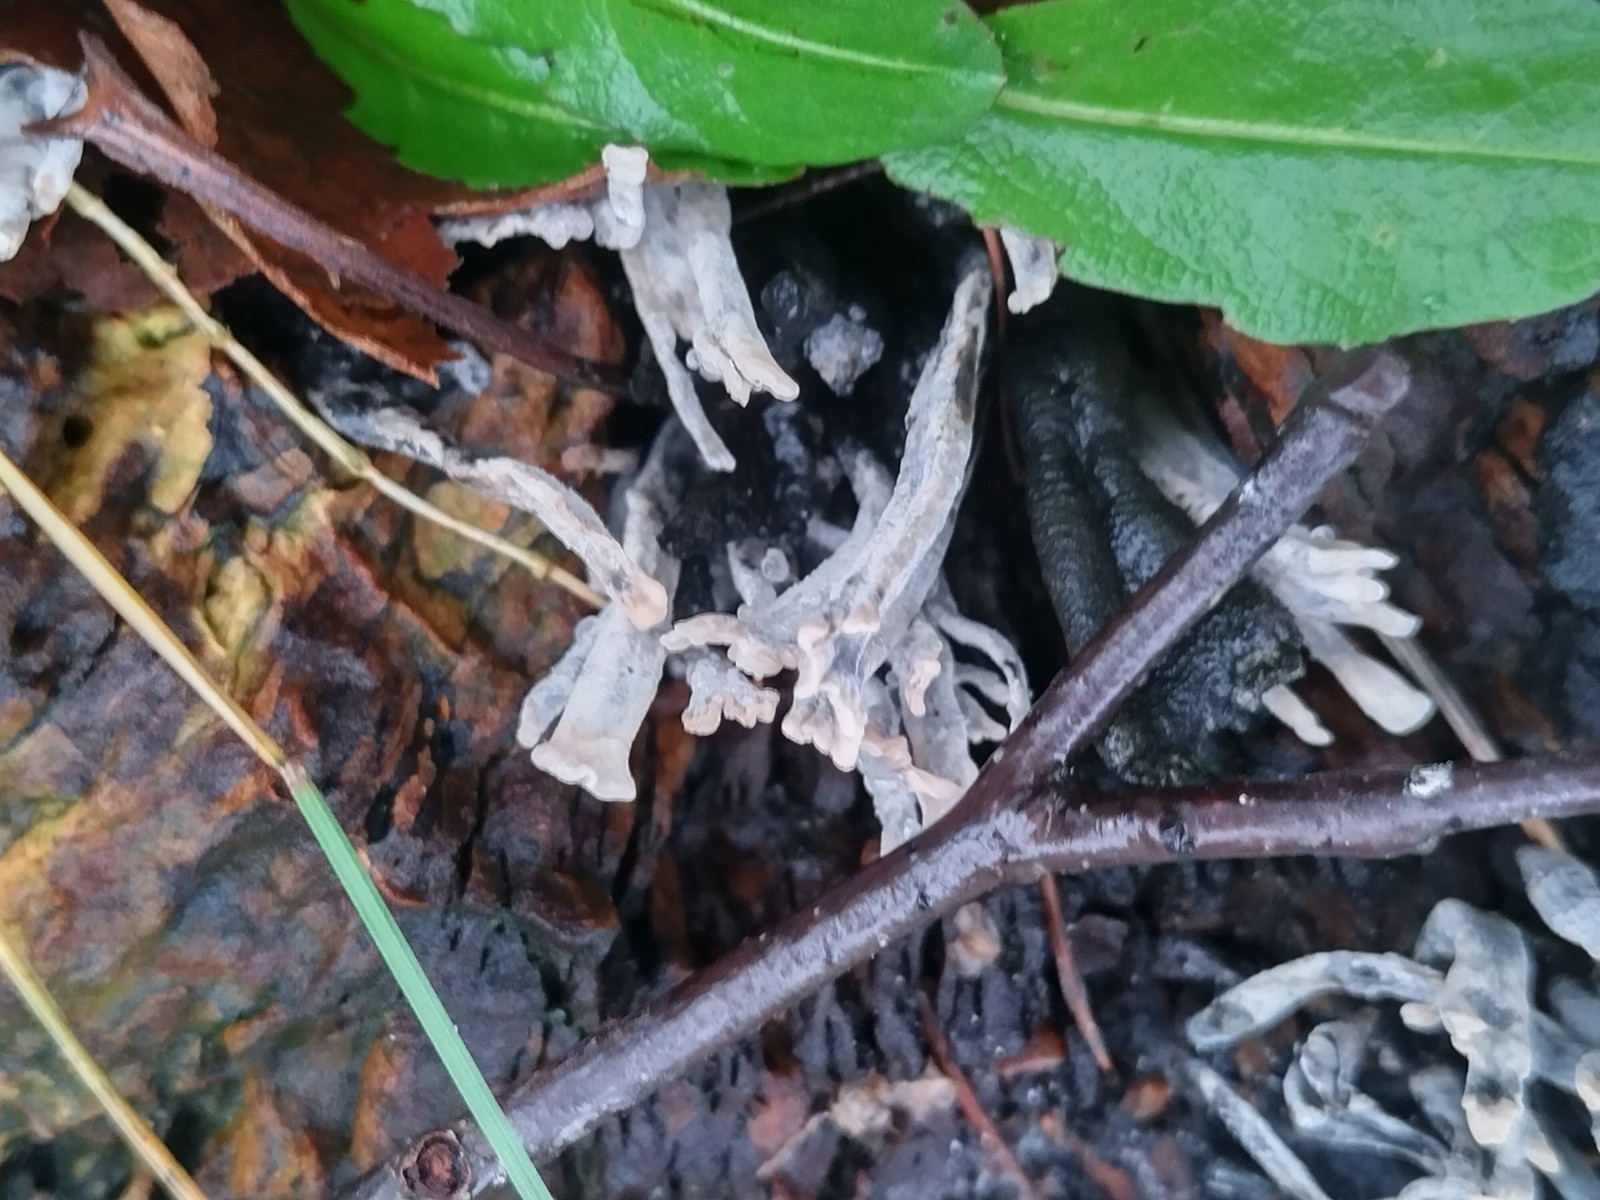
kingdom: Fungi
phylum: Ascomycota
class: Sordariomycetes
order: Xylariales
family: Xylariaceae
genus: Xylaria
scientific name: Xylaria hypoxylon
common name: grenet stødsvamp
